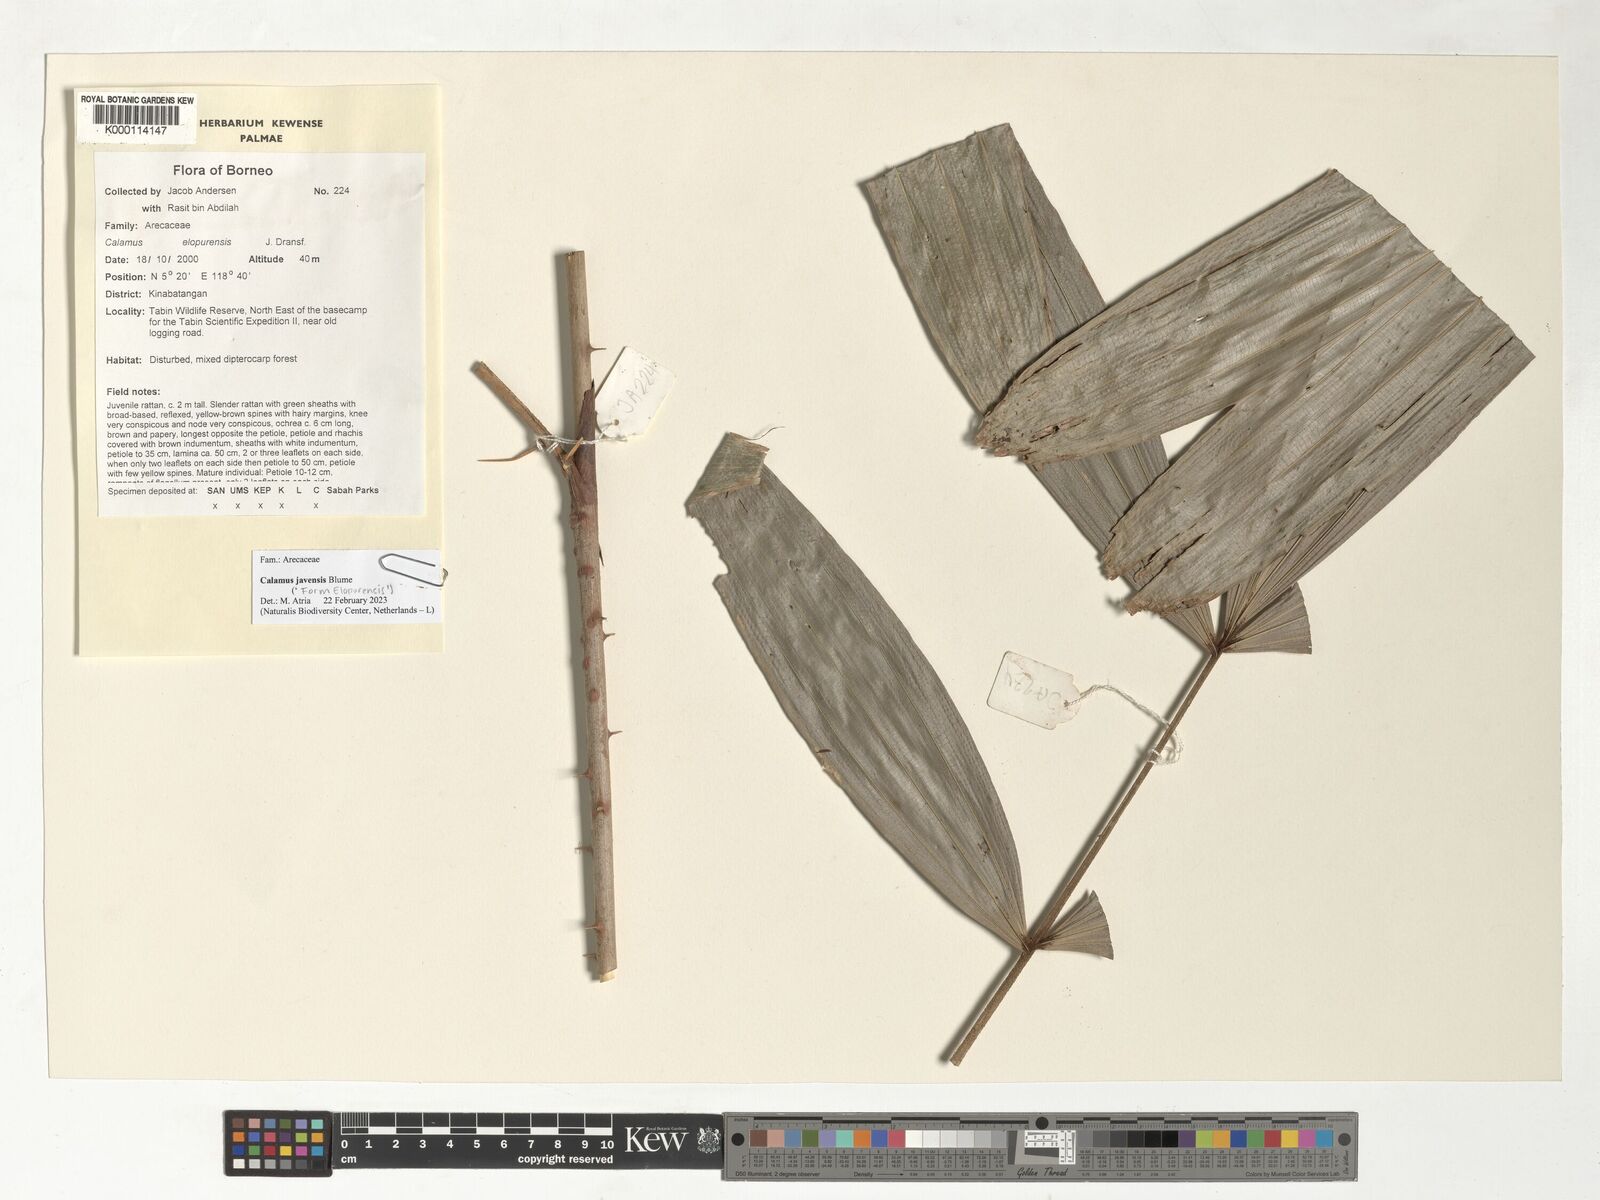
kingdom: Plantae
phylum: Tracheophyta
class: Liliopsida
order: Arecales
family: Arecaceae
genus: Calamus
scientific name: Calamus javensis
